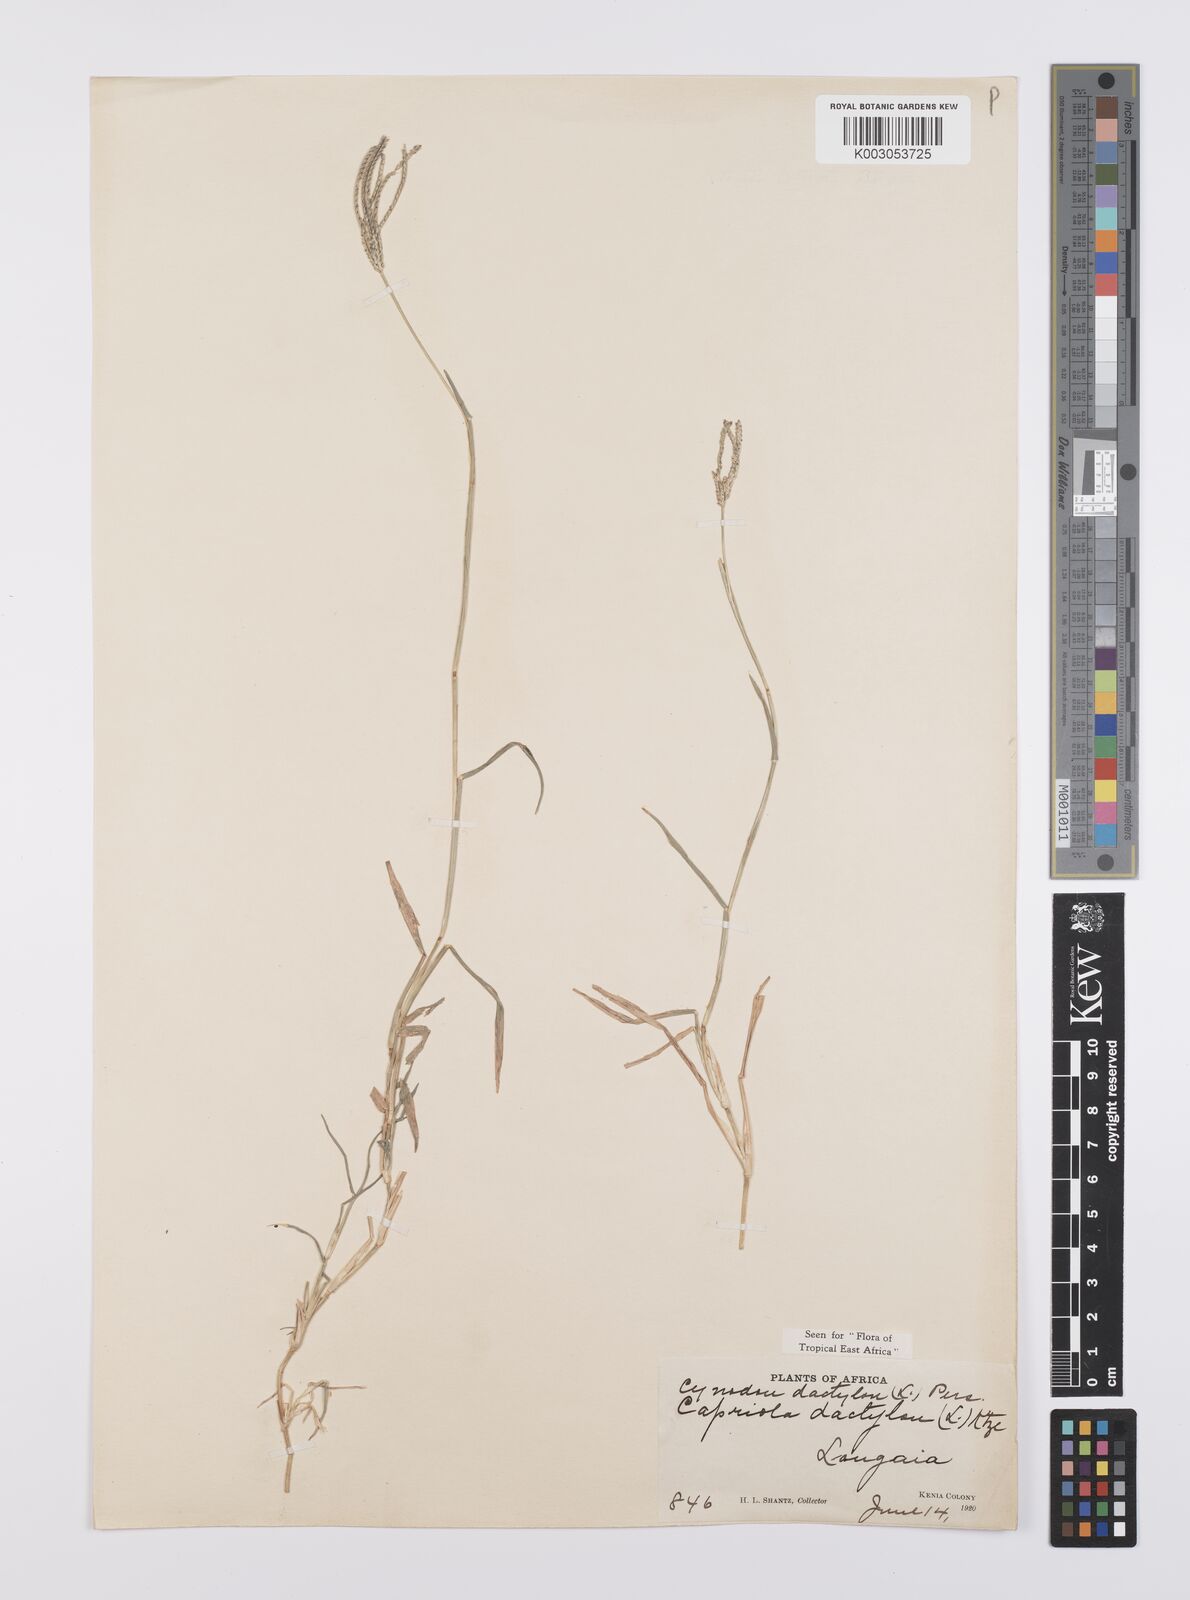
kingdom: Plantae
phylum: Tracheophyta
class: Liliopsida
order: Poales
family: Poaceae
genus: Cynodon
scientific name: Cynodon dactylon
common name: Bermuda grass
